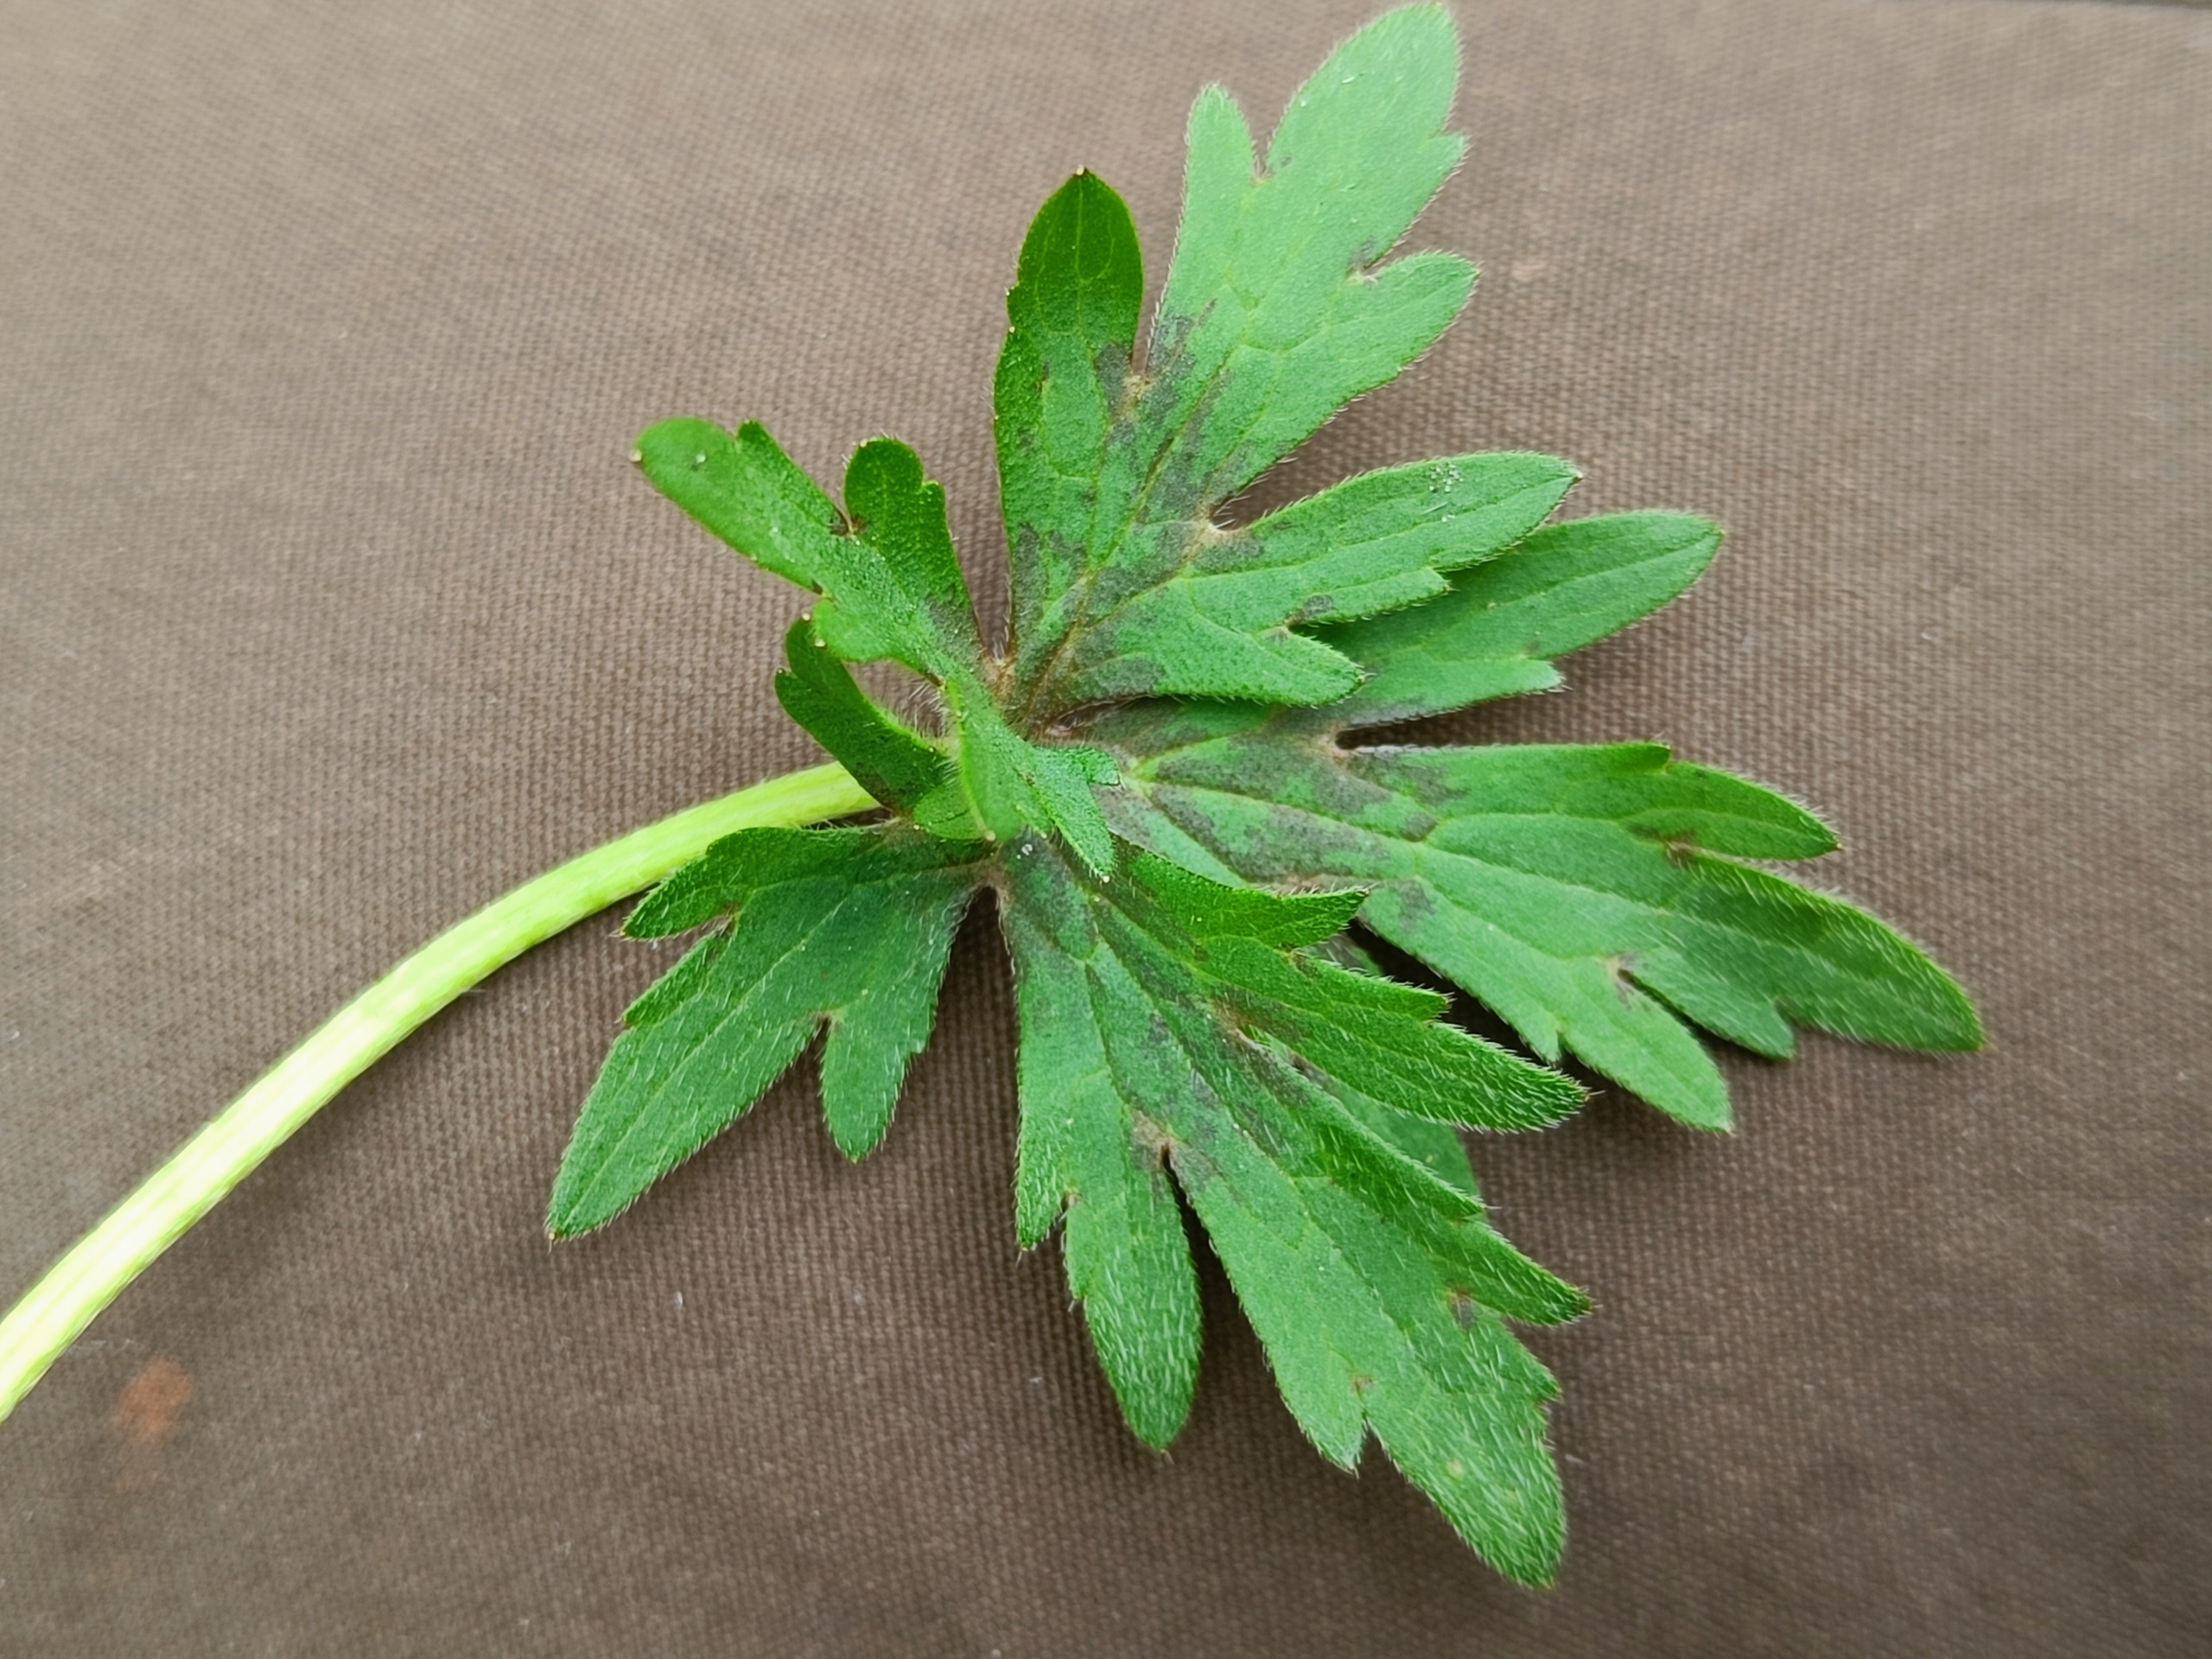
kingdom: Plantae
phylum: Tracheophyta
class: Magnoliopsida
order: Ranunculales
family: Ranunculaceae
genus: Ranunculus
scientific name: Ranunculus acris
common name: Bidende ranunkel
